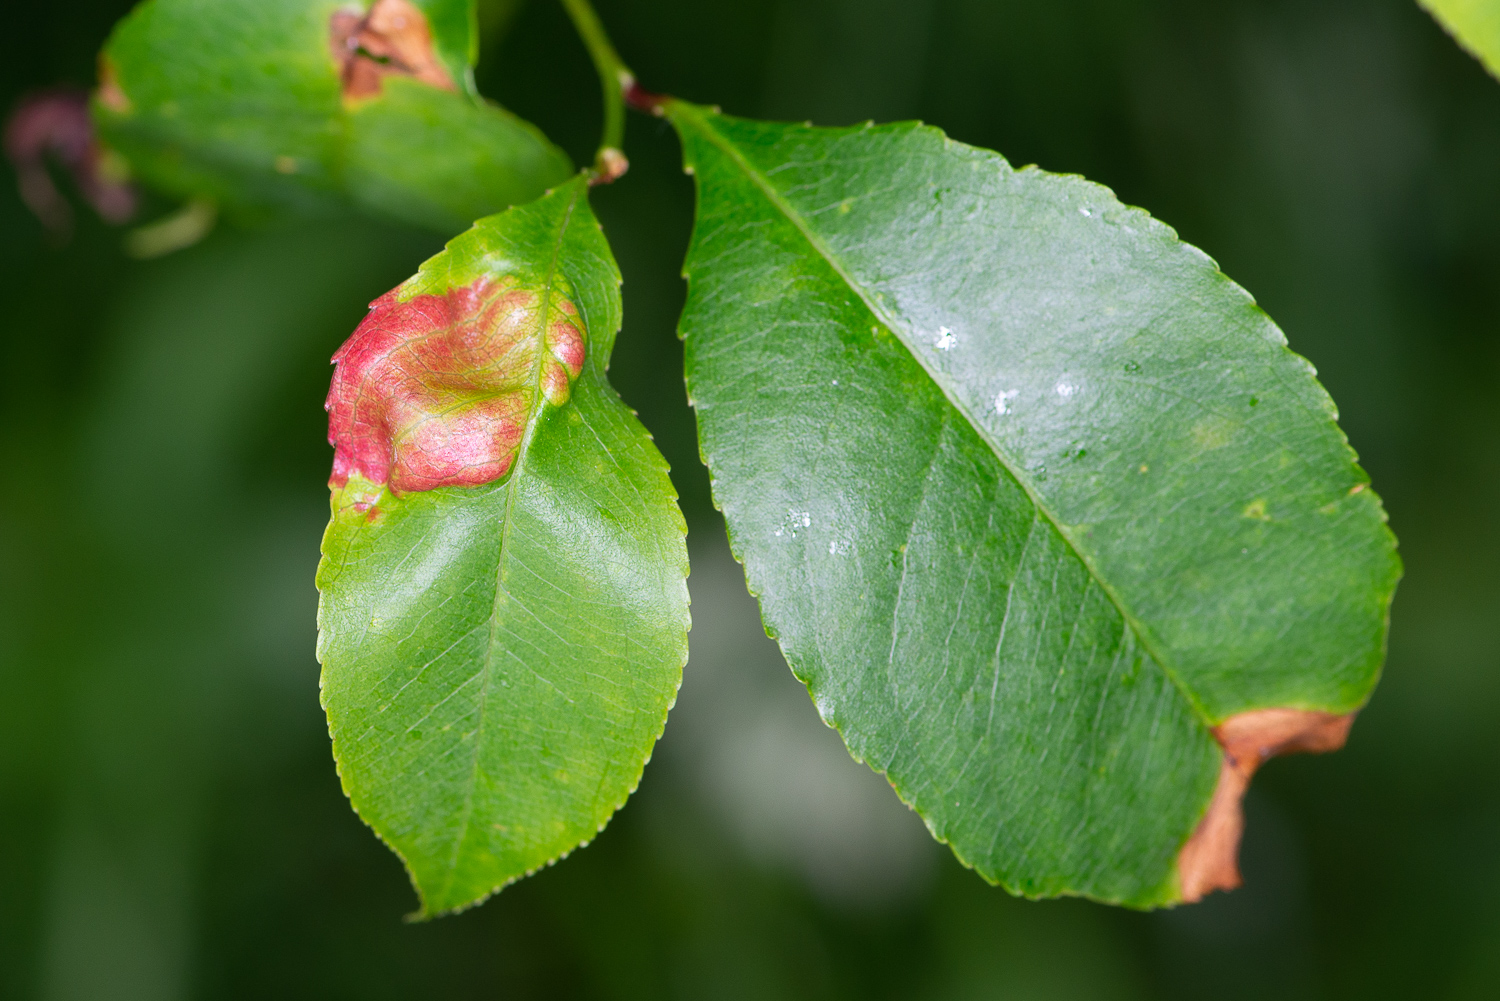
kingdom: Fungi
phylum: Ascomycota
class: Taphrinomycetes
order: Taphrinales
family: Taphrinaceae
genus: Taphrina
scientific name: Taphrina farlowii
